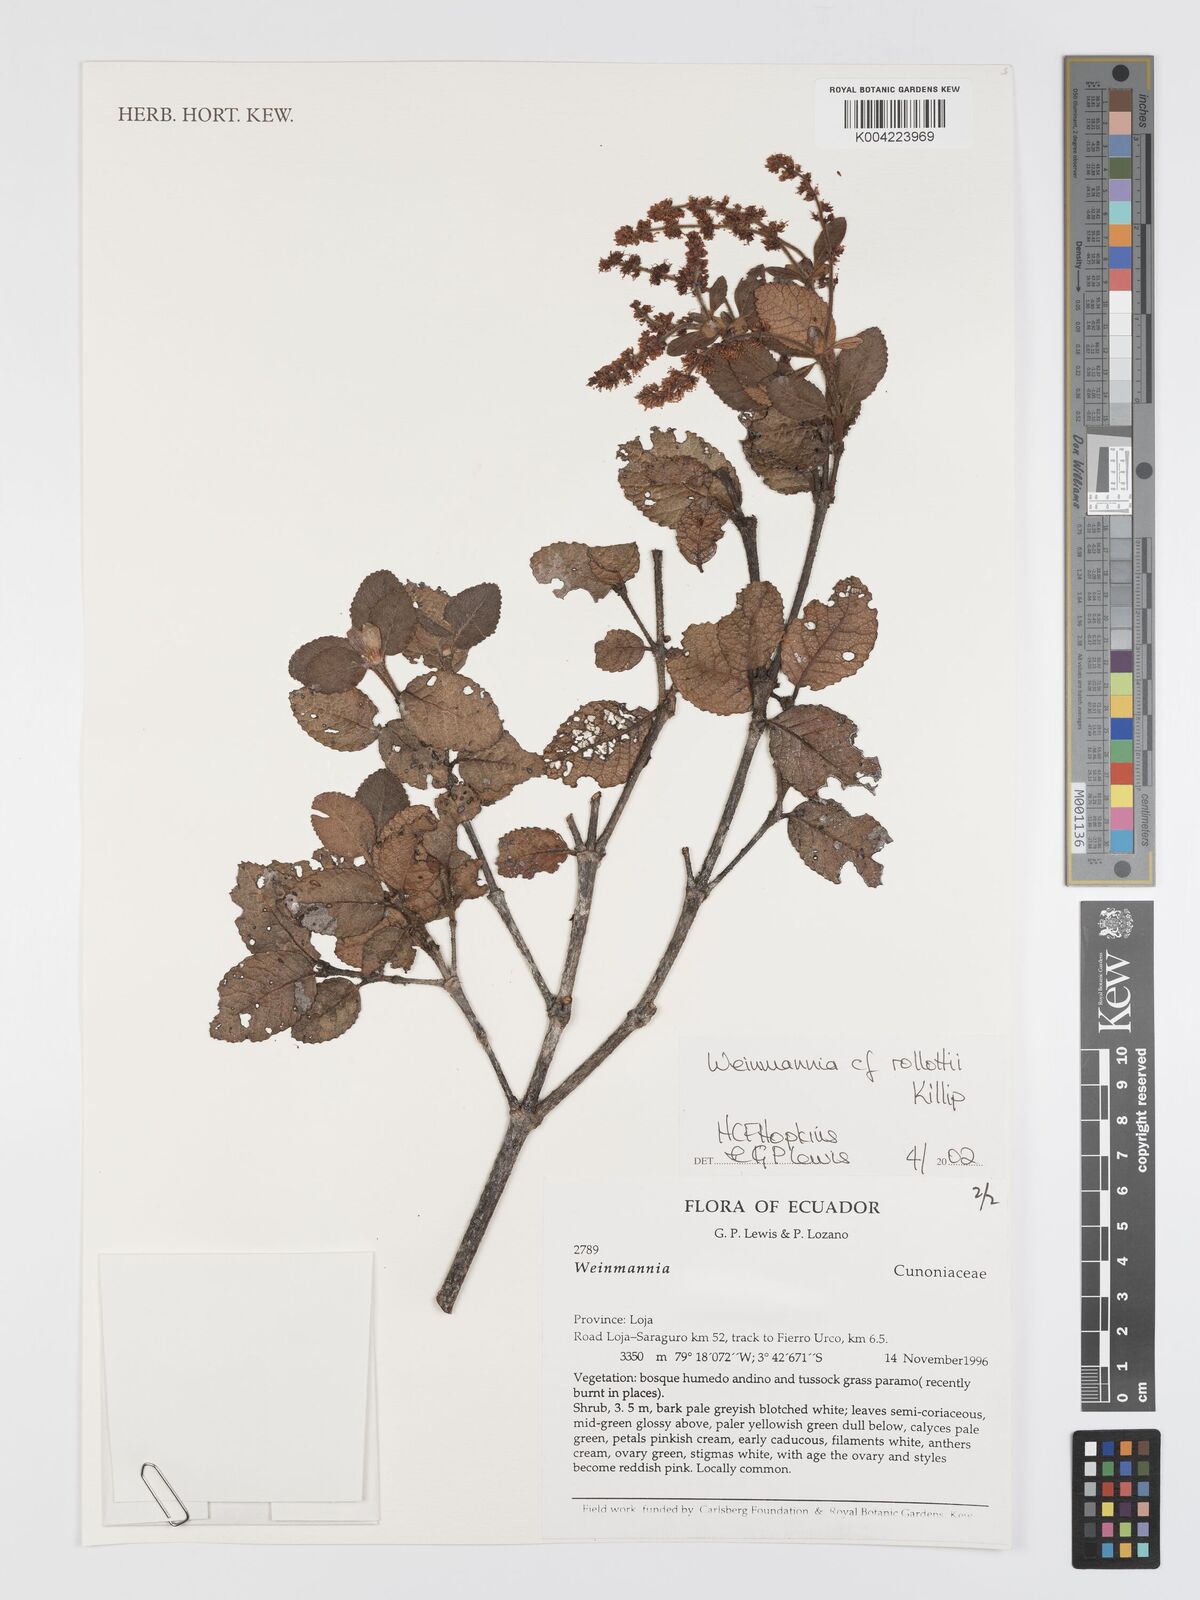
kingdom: Plantae
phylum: Tracheophyta
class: Magnoliopsida
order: Oxalidales
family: Cunoniaceae
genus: Weinmannia
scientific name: Weinmannia rollottii
